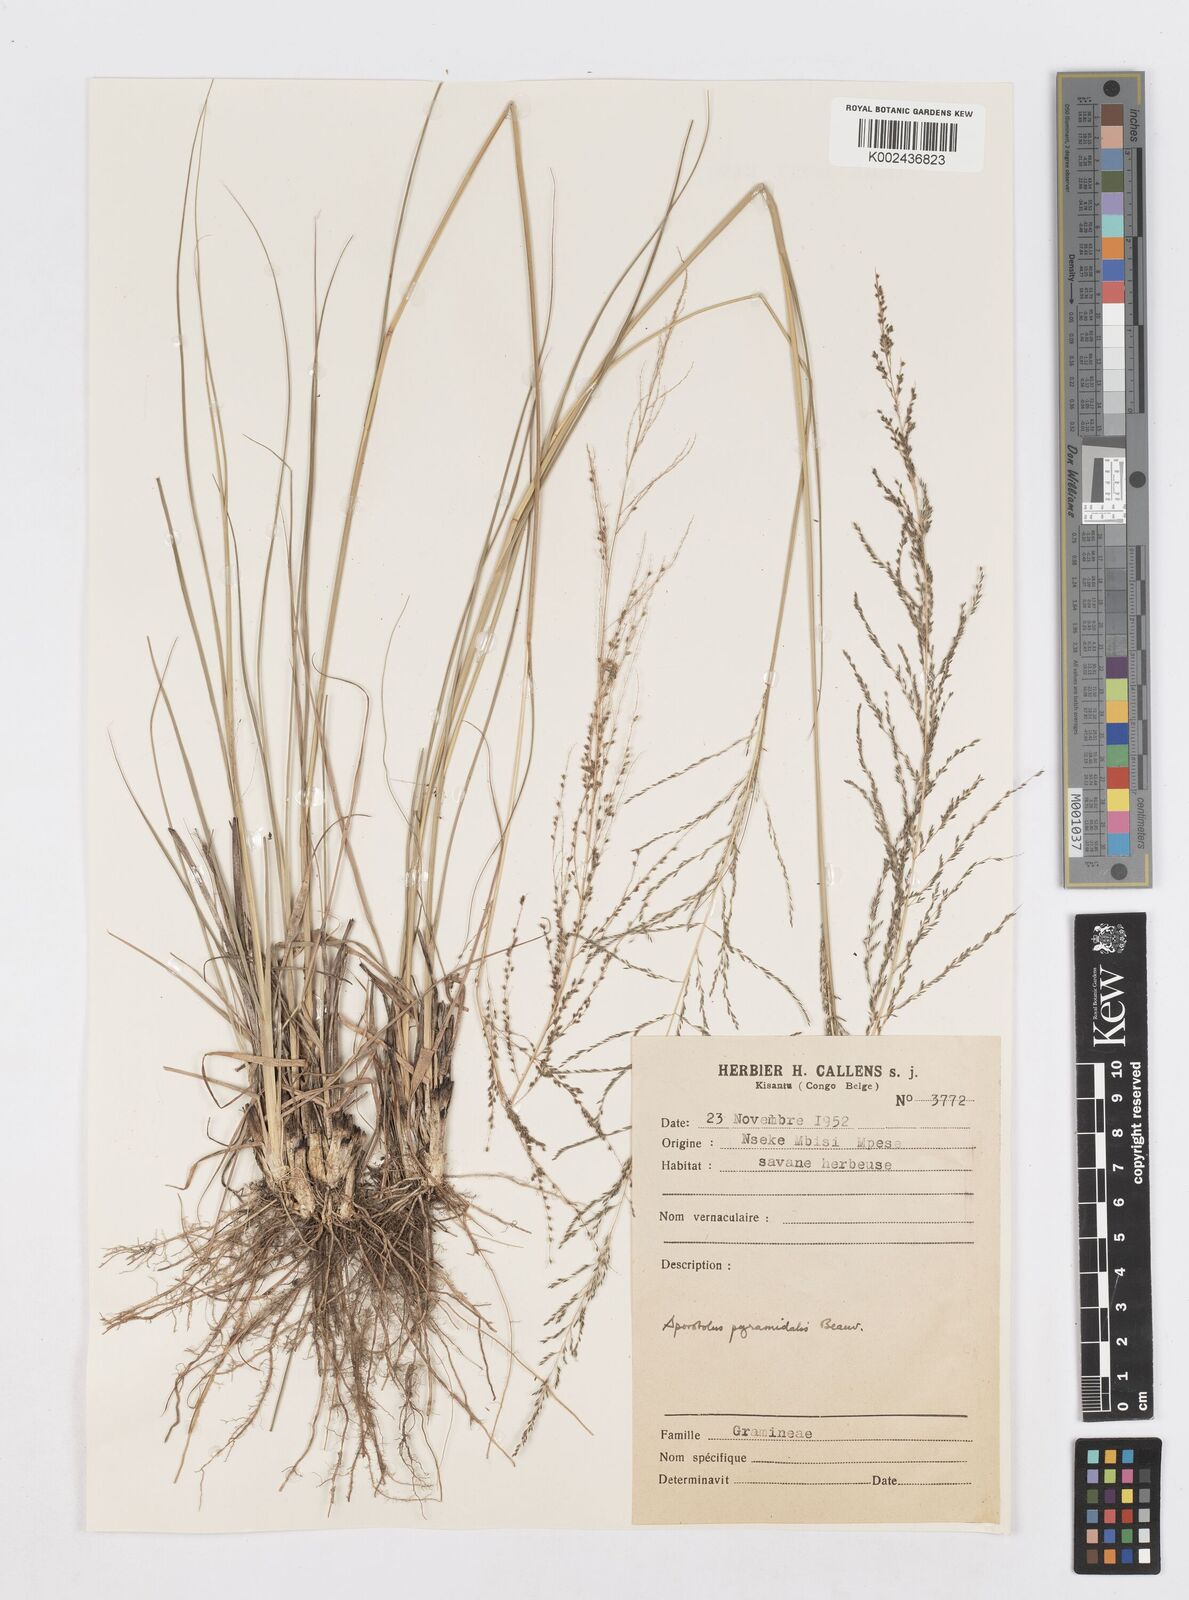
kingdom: Plantae
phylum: Tracheophyta
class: Liliopsida
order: Poales
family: Poaceae
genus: Sporobolus
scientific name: Sporobolus pyramidalis
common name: West indian dropseed
